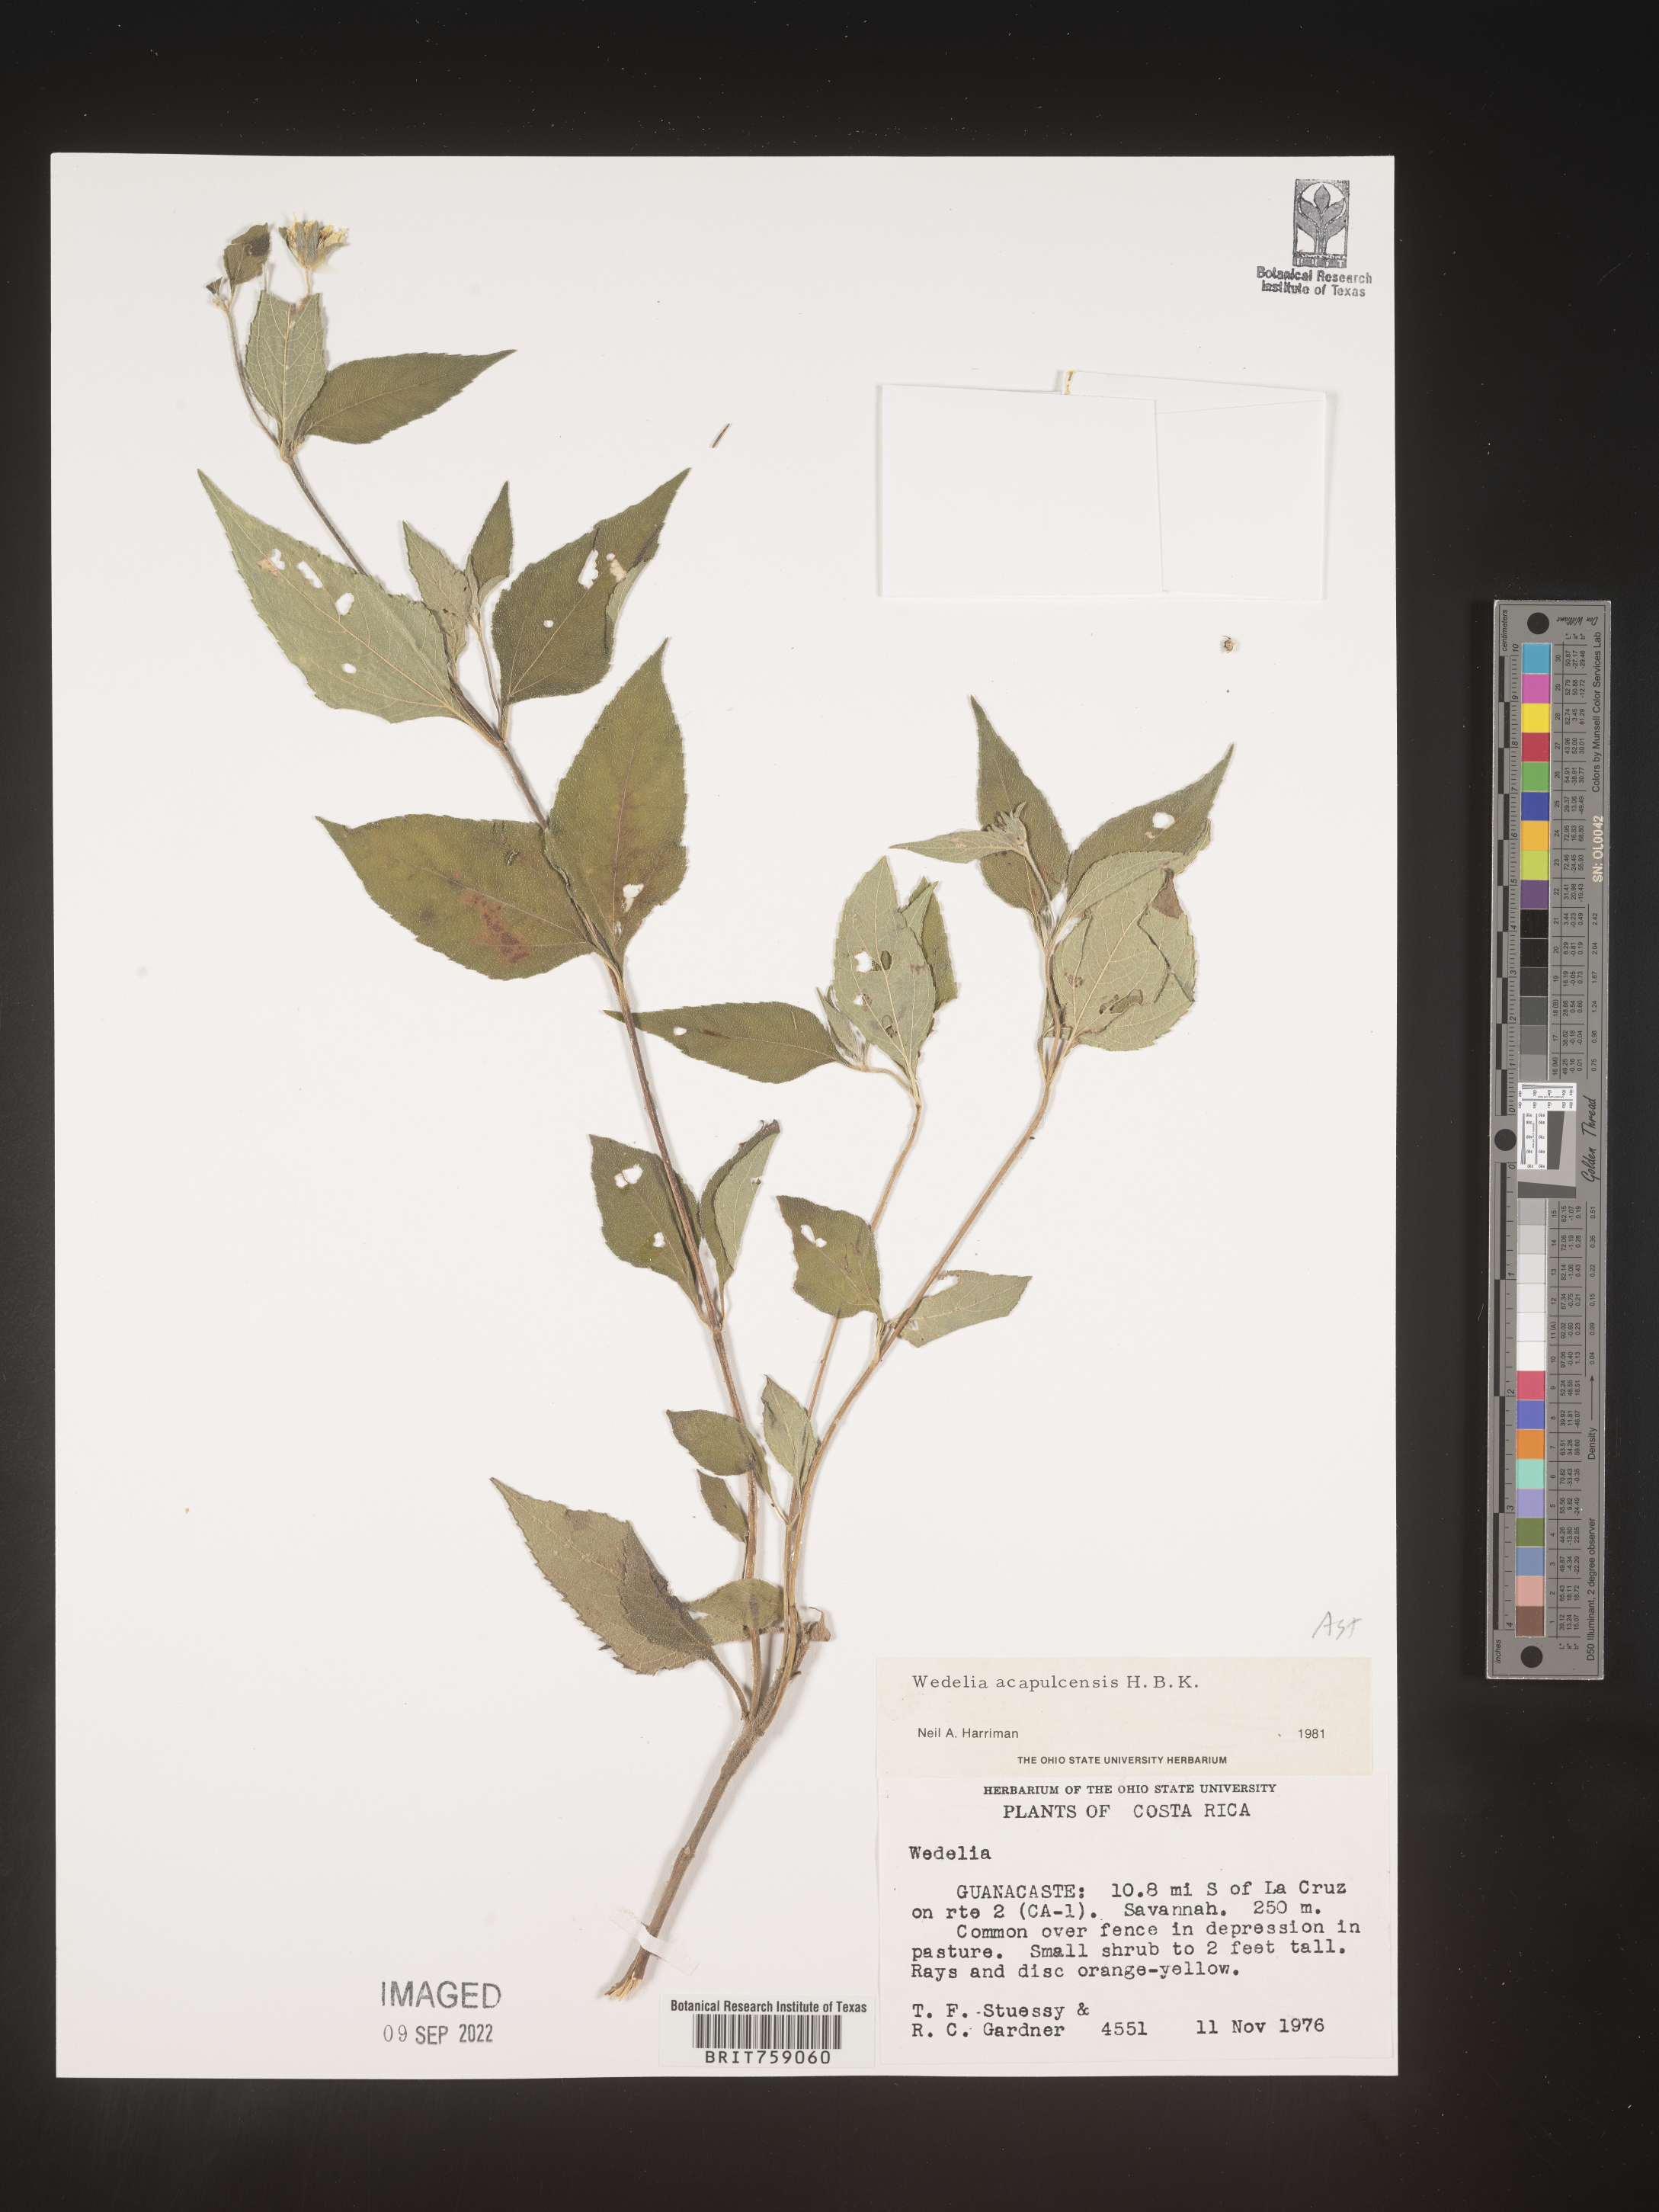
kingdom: Plantae
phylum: Tracheophyta
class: Magnoliopsida
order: Asterales
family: Asteraceae
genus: Wedelia
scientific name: Wedelia acapulcensis
